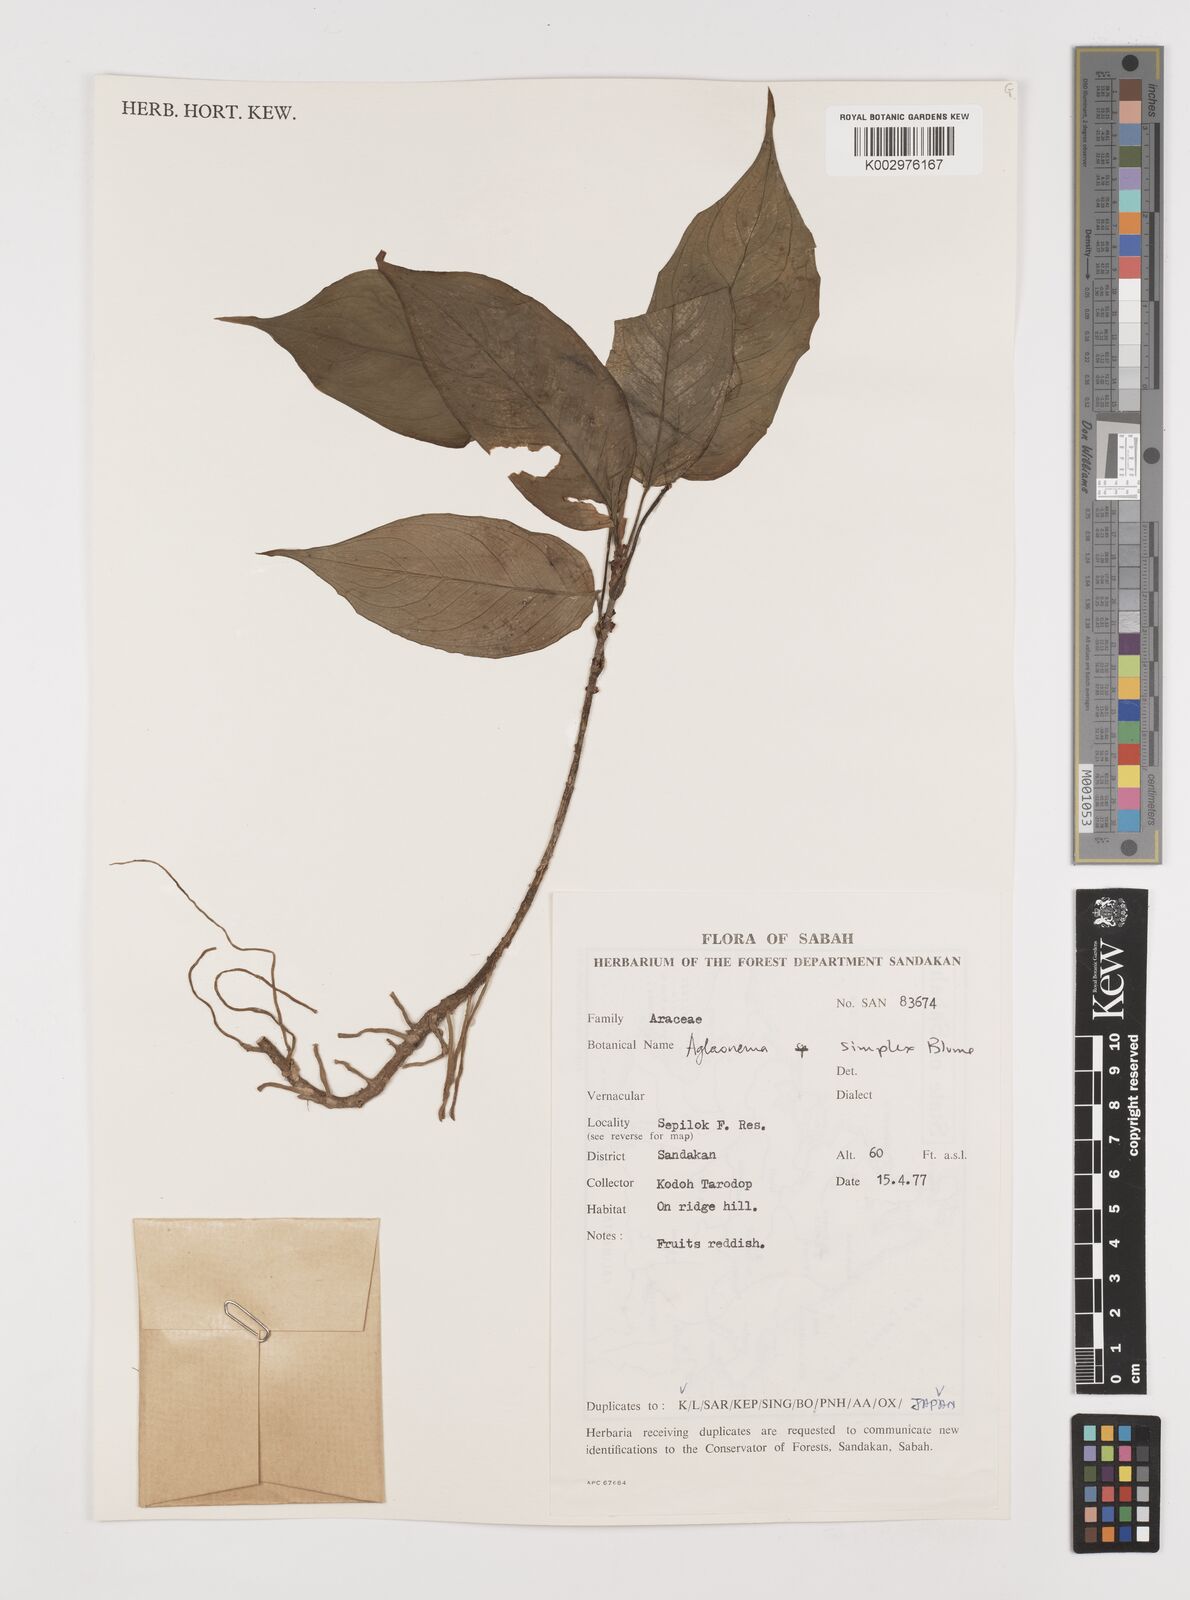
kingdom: Plantae
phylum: Tracheophyta
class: Liliopsida
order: Alismatales
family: Araceae
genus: Aglaonema
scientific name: Aglaonema simplex
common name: Malayan-sword
